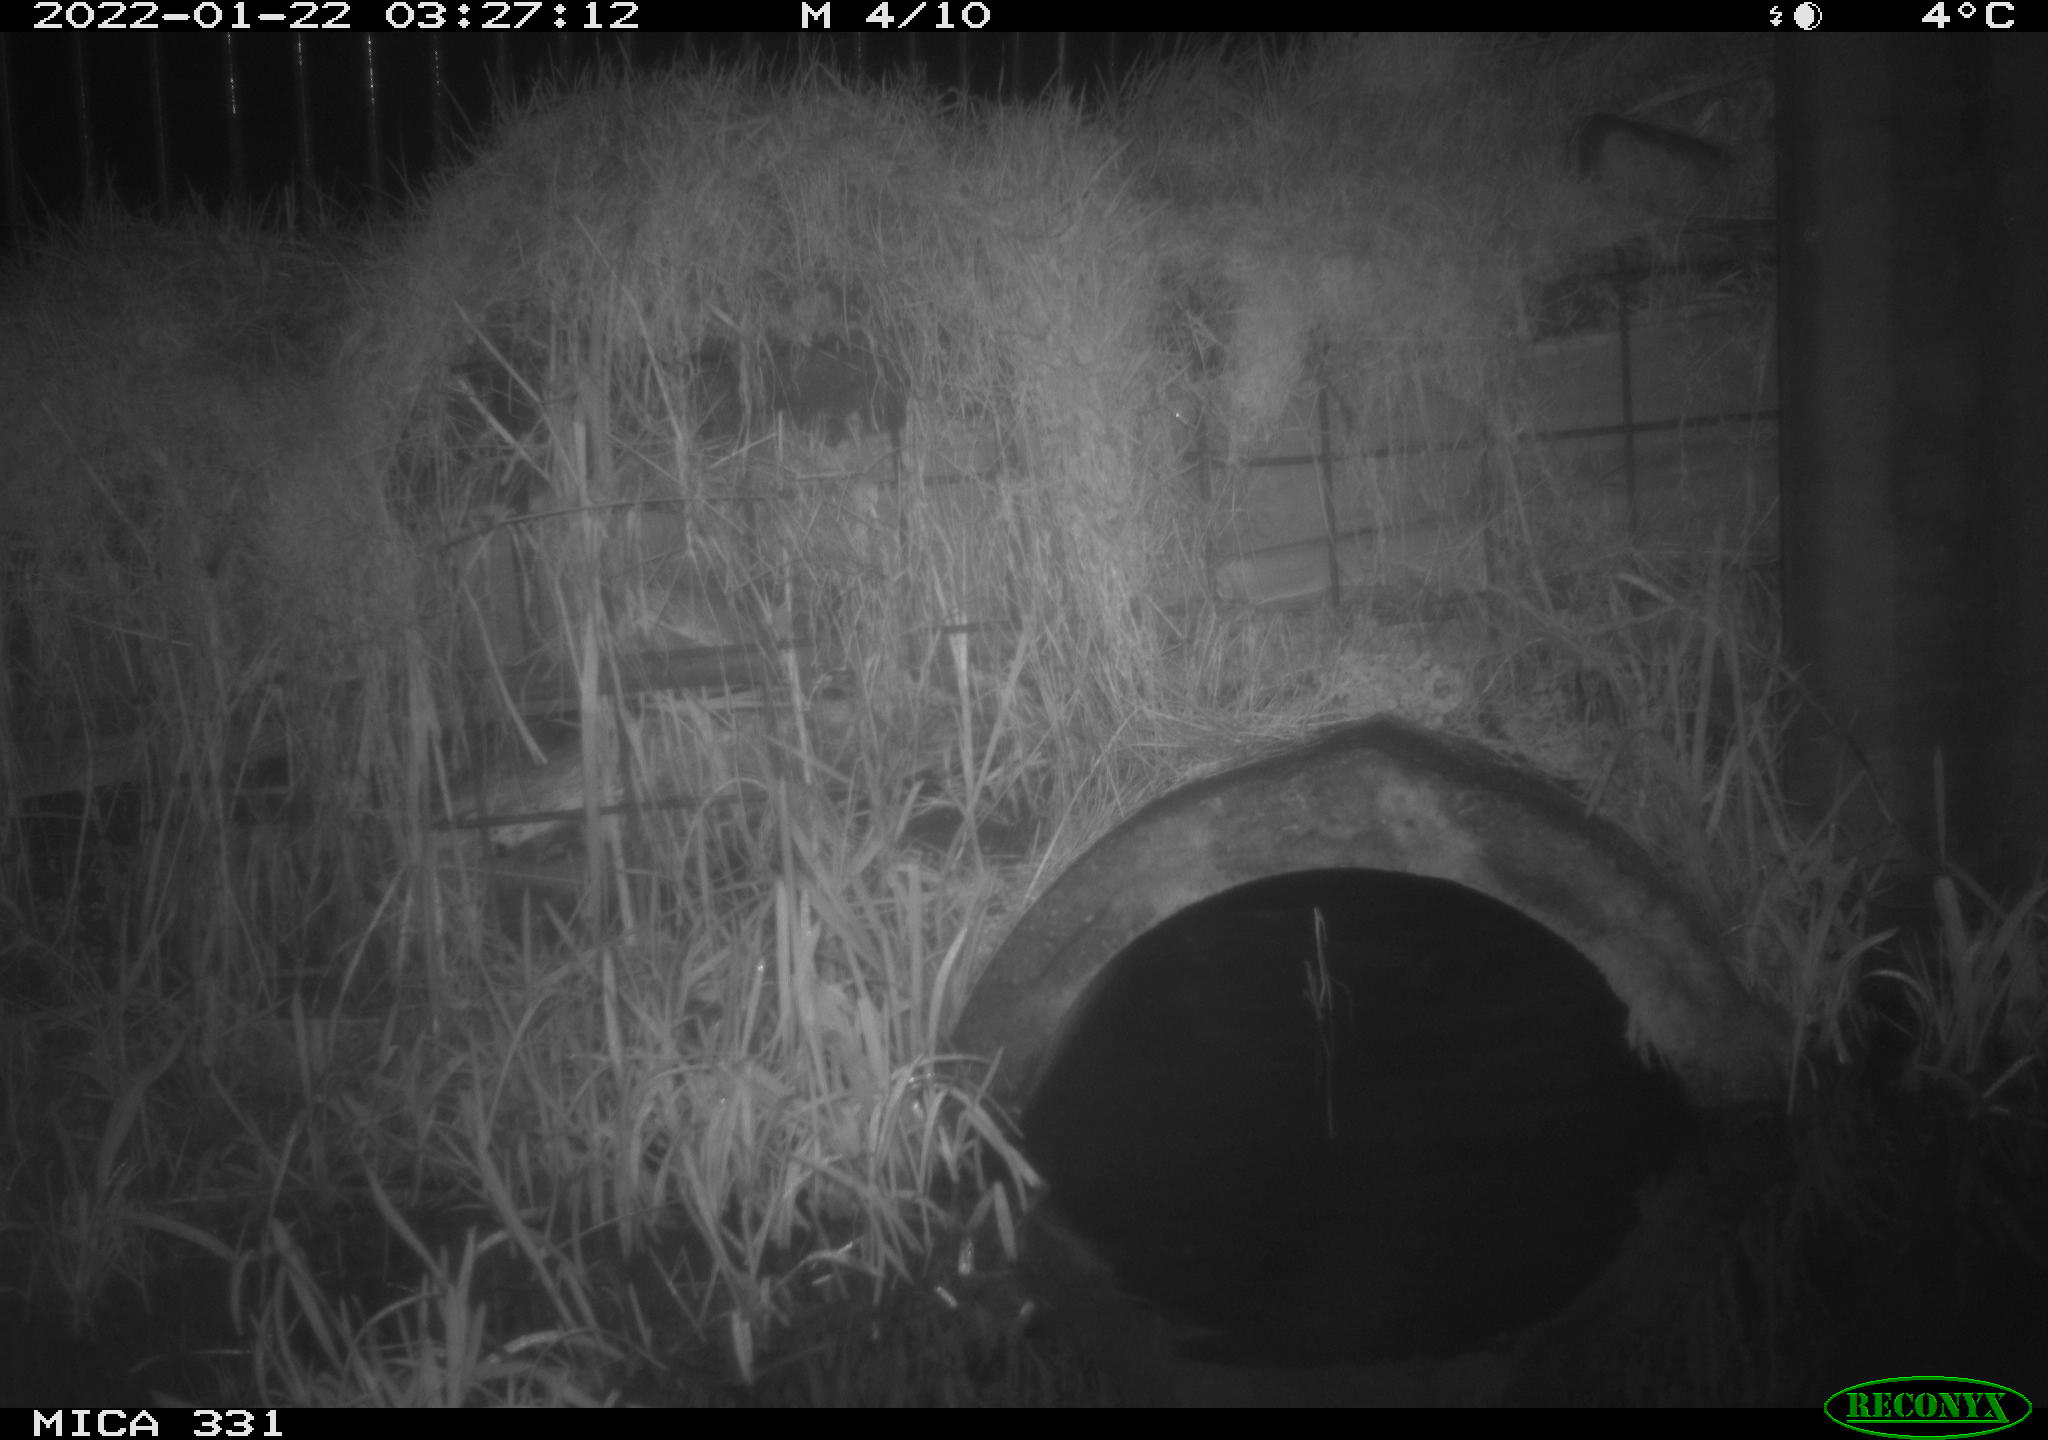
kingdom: Animalia
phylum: Chordata
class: Mammalia
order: Carnivora
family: Canidae
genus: Vulpes
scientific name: Vulpes vulpes
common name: Red fox
